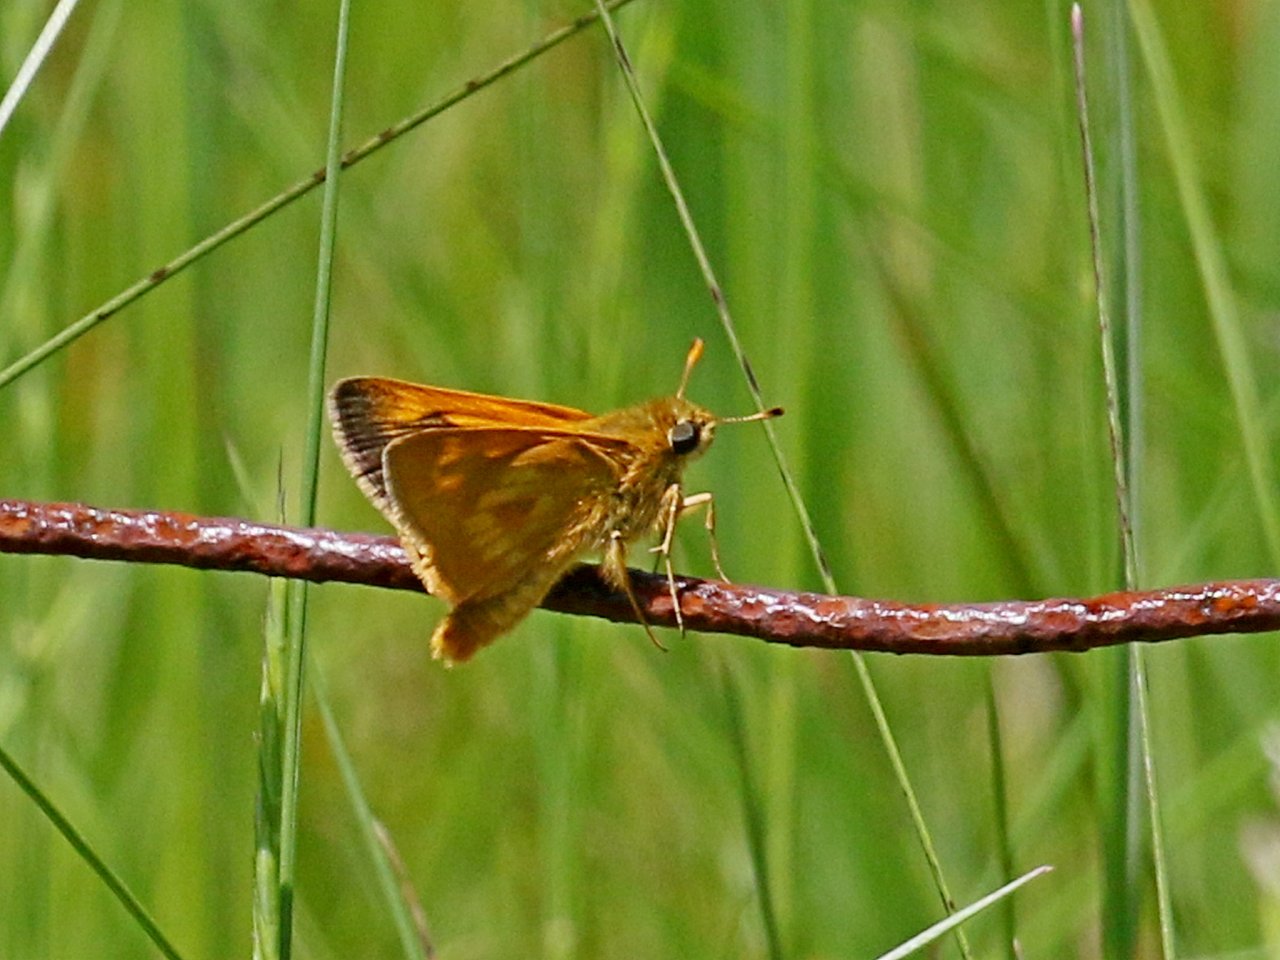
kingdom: Animalia
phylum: Arthropoda
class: Insecta
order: Lepidoptera
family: Hesperiidae
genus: Polites
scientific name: Polites
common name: Long Dash Skipper
